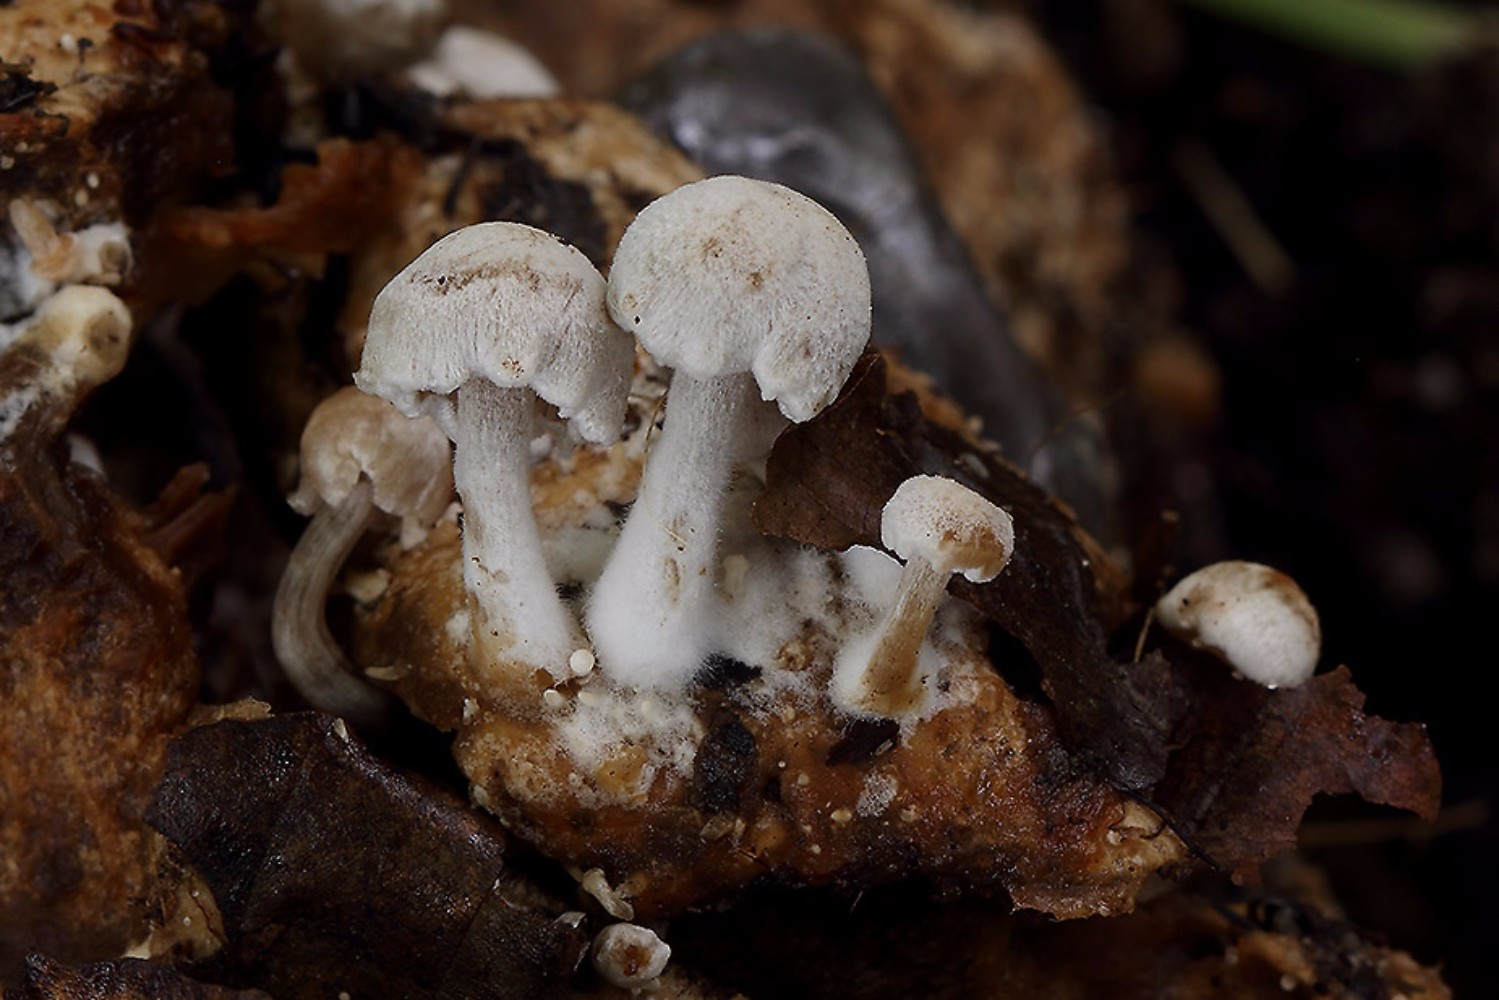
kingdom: Fungi
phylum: Basidiomycota
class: Agaricomycetes
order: Agaricales
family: Lyophyllaceae
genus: Asterophora
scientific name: Asterophora parasitica
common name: grå snyltehat
